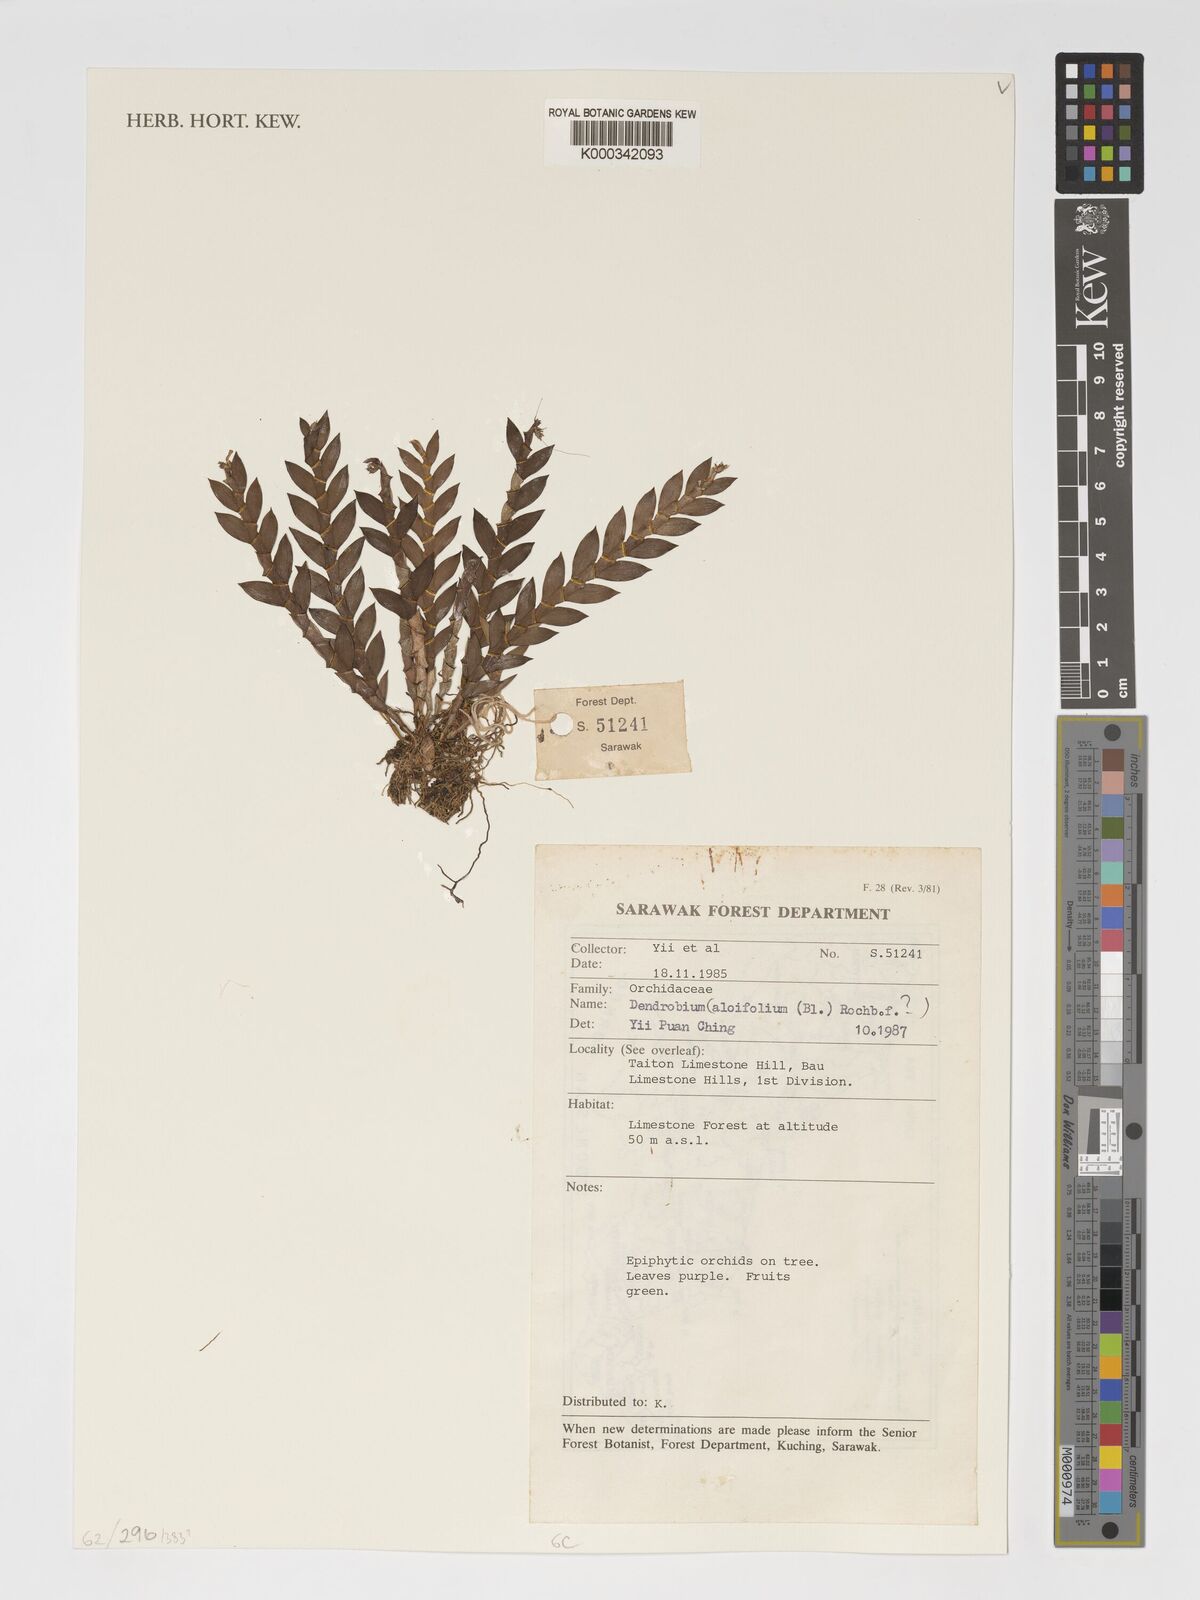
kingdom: Plantae
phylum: Tracheophyta
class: Liliopsida
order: Asparagales
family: Orchidaceae
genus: Dendrobium
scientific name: Dendrobium aloifolium
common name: Aloe-like dendrobium
